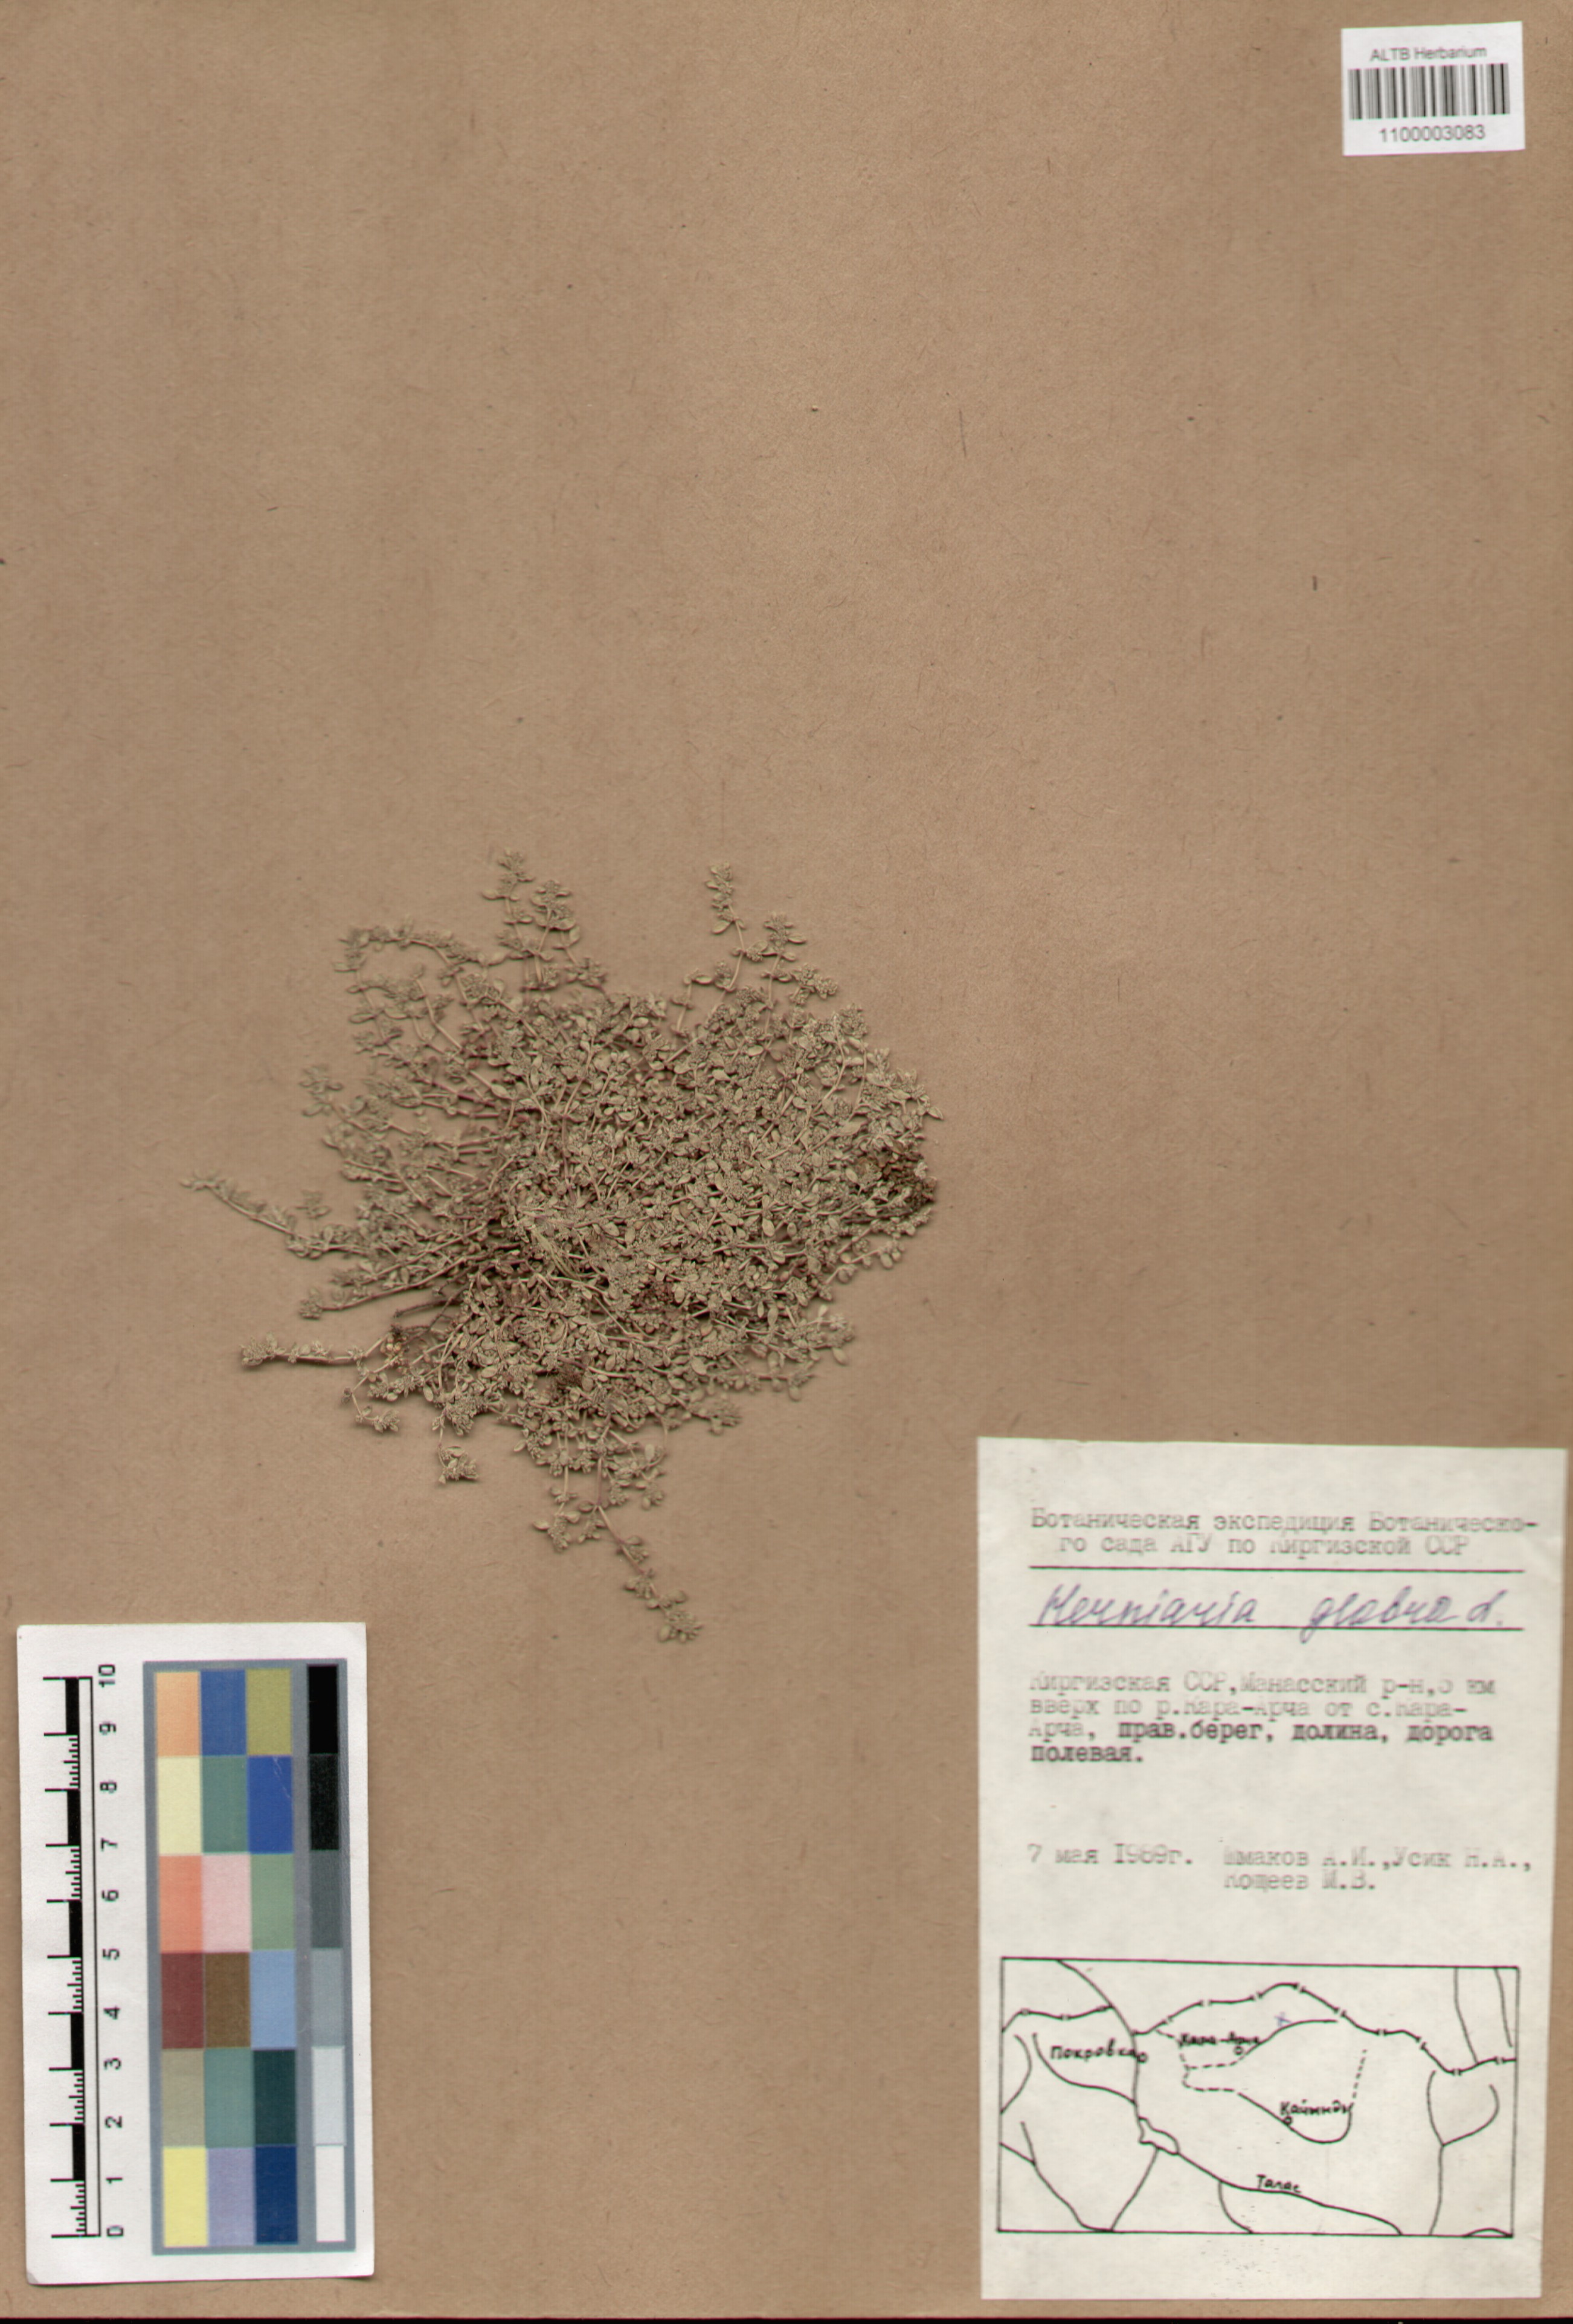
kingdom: Plantae
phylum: Tracheophyta
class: Magnoliopsida
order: Caryophyllales
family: Caryophyllaceae
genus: Herniaria
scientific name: Herniaria glabra
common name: Smooth rupturewort
